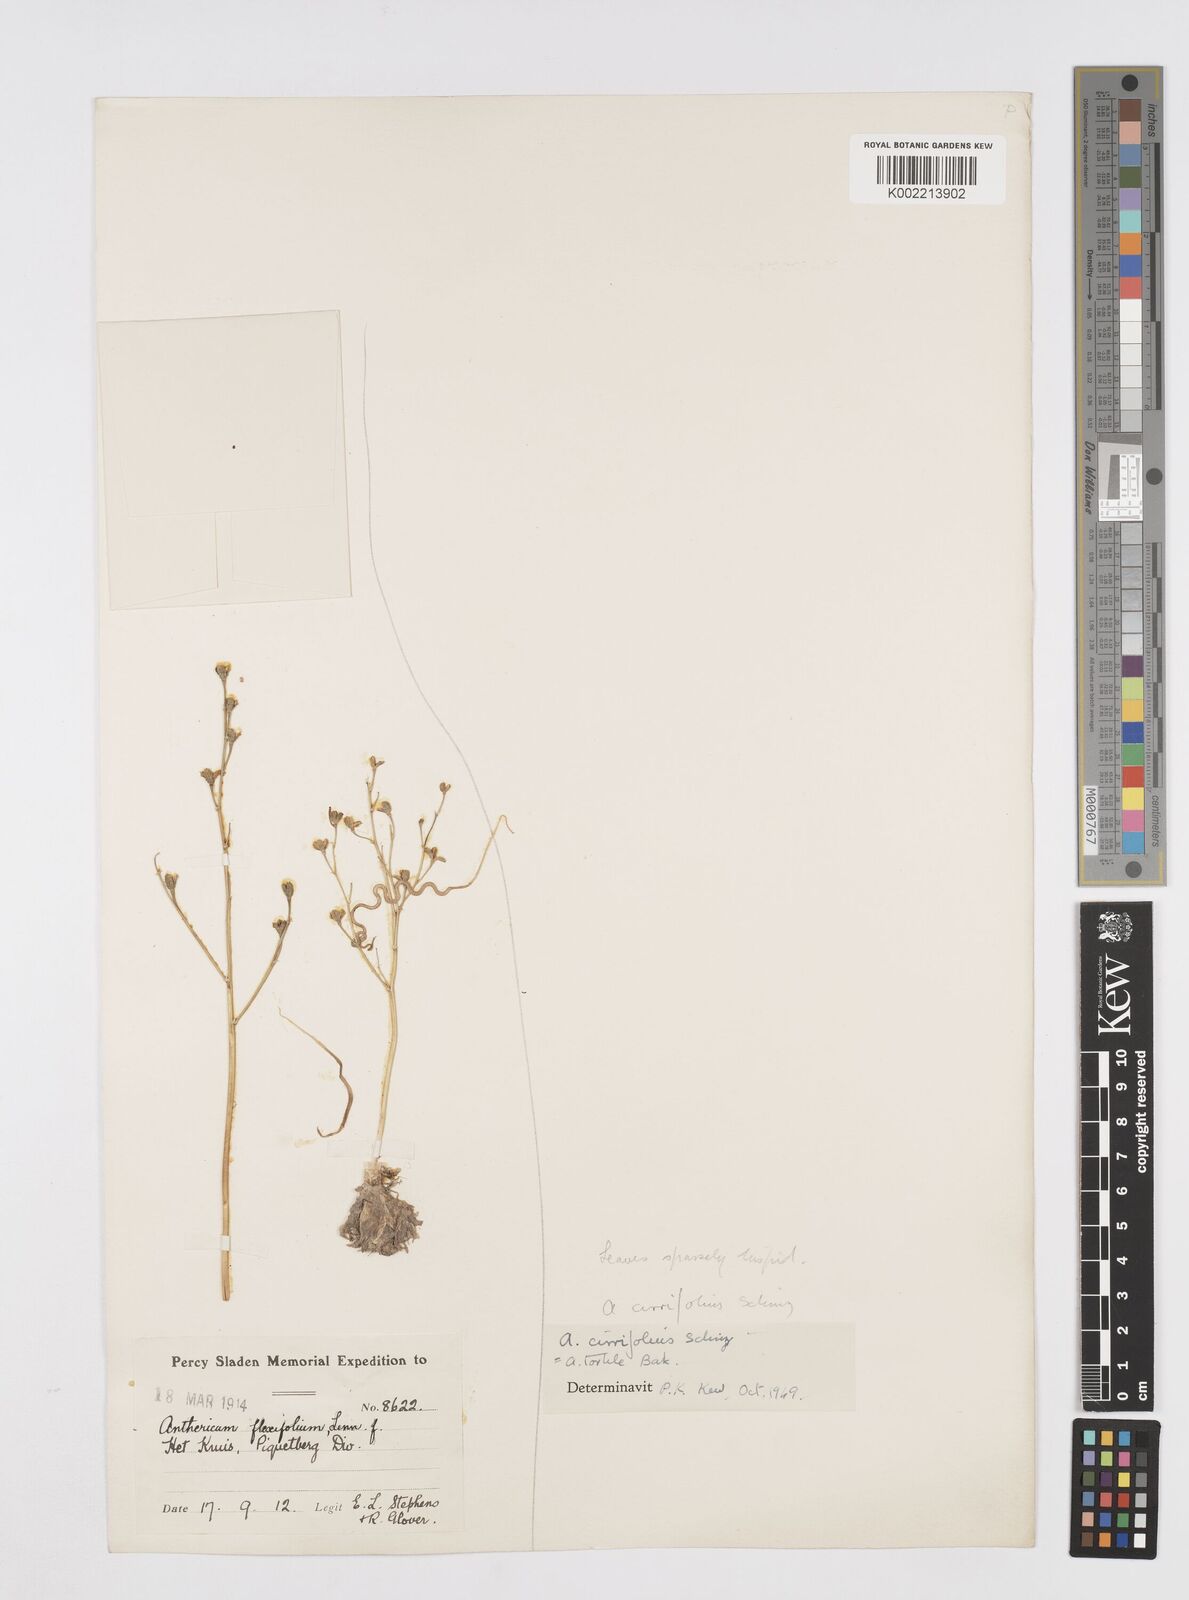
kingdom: Plantae
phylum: Tracheophyta
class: Liliopsida
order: Asparagales
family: Asphodelaceae
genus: Trachyandra
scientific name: Trachyandra flexifolia
